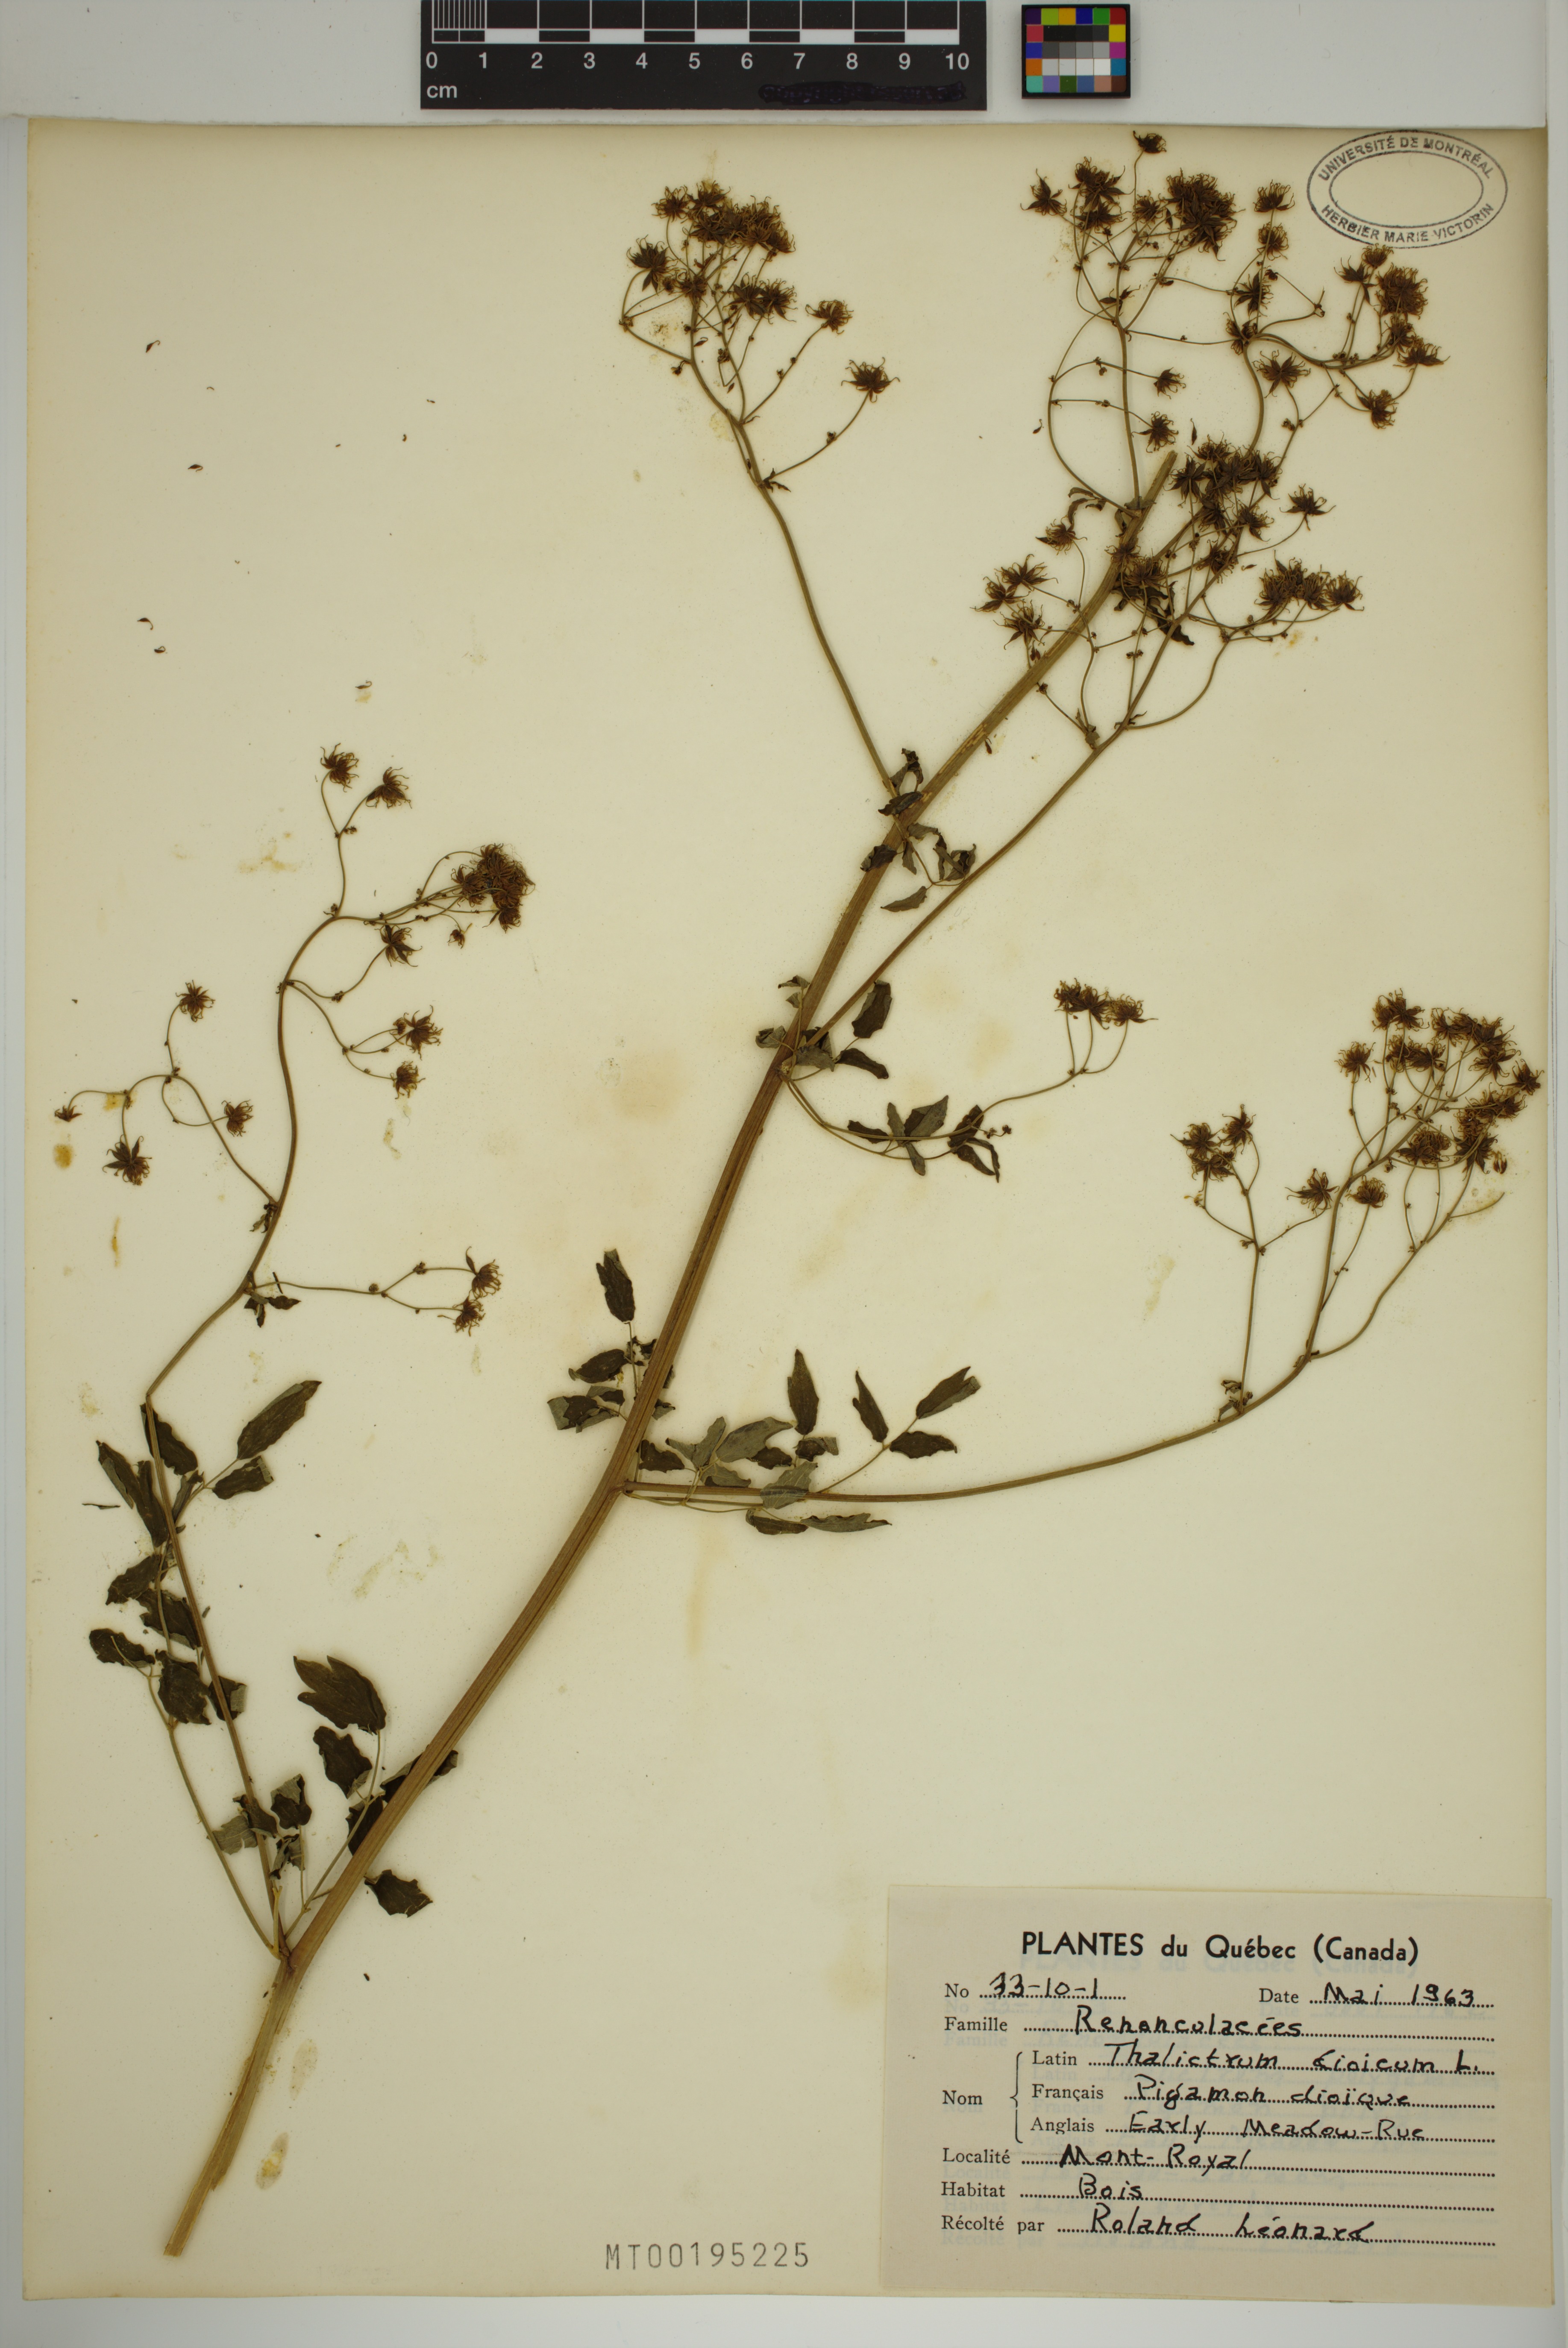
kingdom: Plantae
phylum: Tracheophyta
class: Magnoliopsida
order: Ranunculales
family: Ranunculaceae
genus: Thalictrum
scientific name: Thalictrum dioicum
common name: Early meadow-rue
